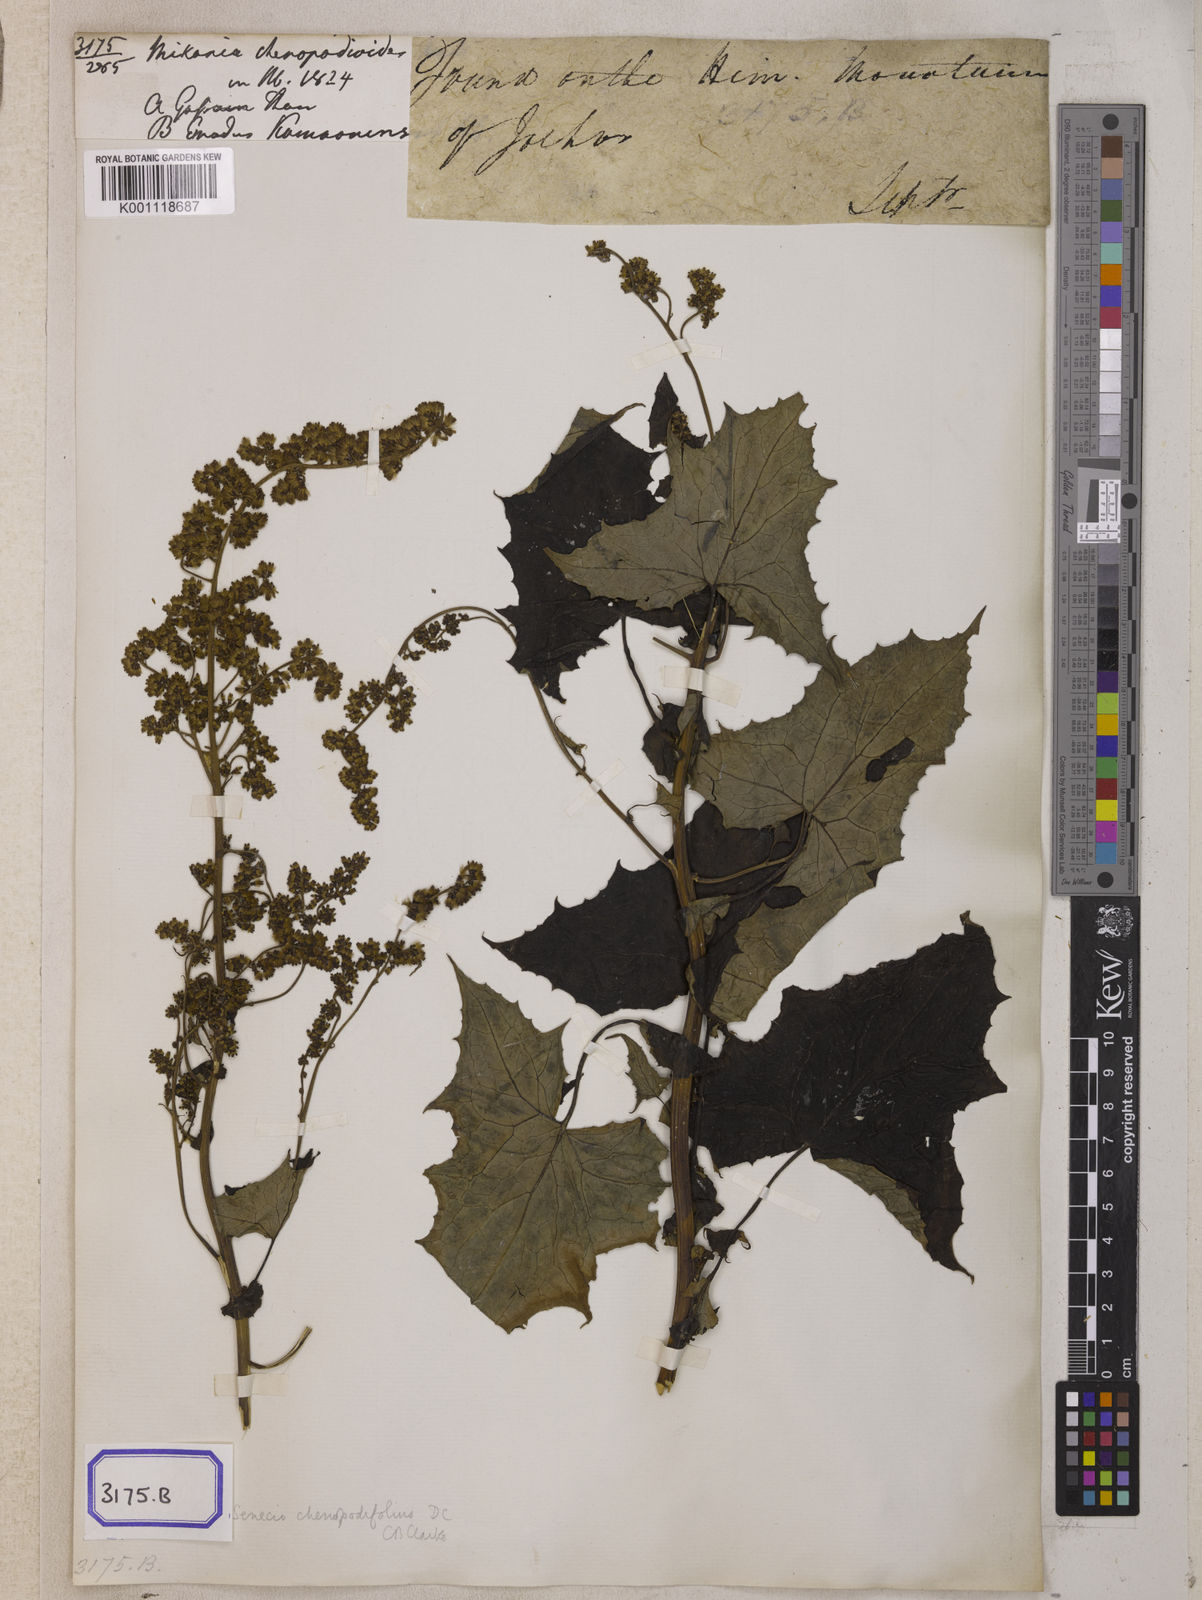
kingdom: Plantae
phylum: Tracheophyta
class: Magnoliopsida
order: Asterales
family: Asteraceae
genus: Mikania
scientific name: Mikania
